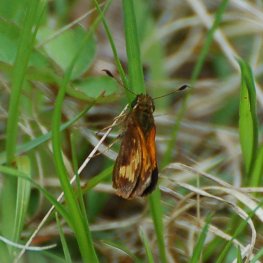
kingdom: Animalia
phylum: Arthropoda
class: Insecta
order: Lepidoptera
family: Hesperiidae
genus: Lon
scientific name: Lon hobomok
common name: Hobomok Skipper
